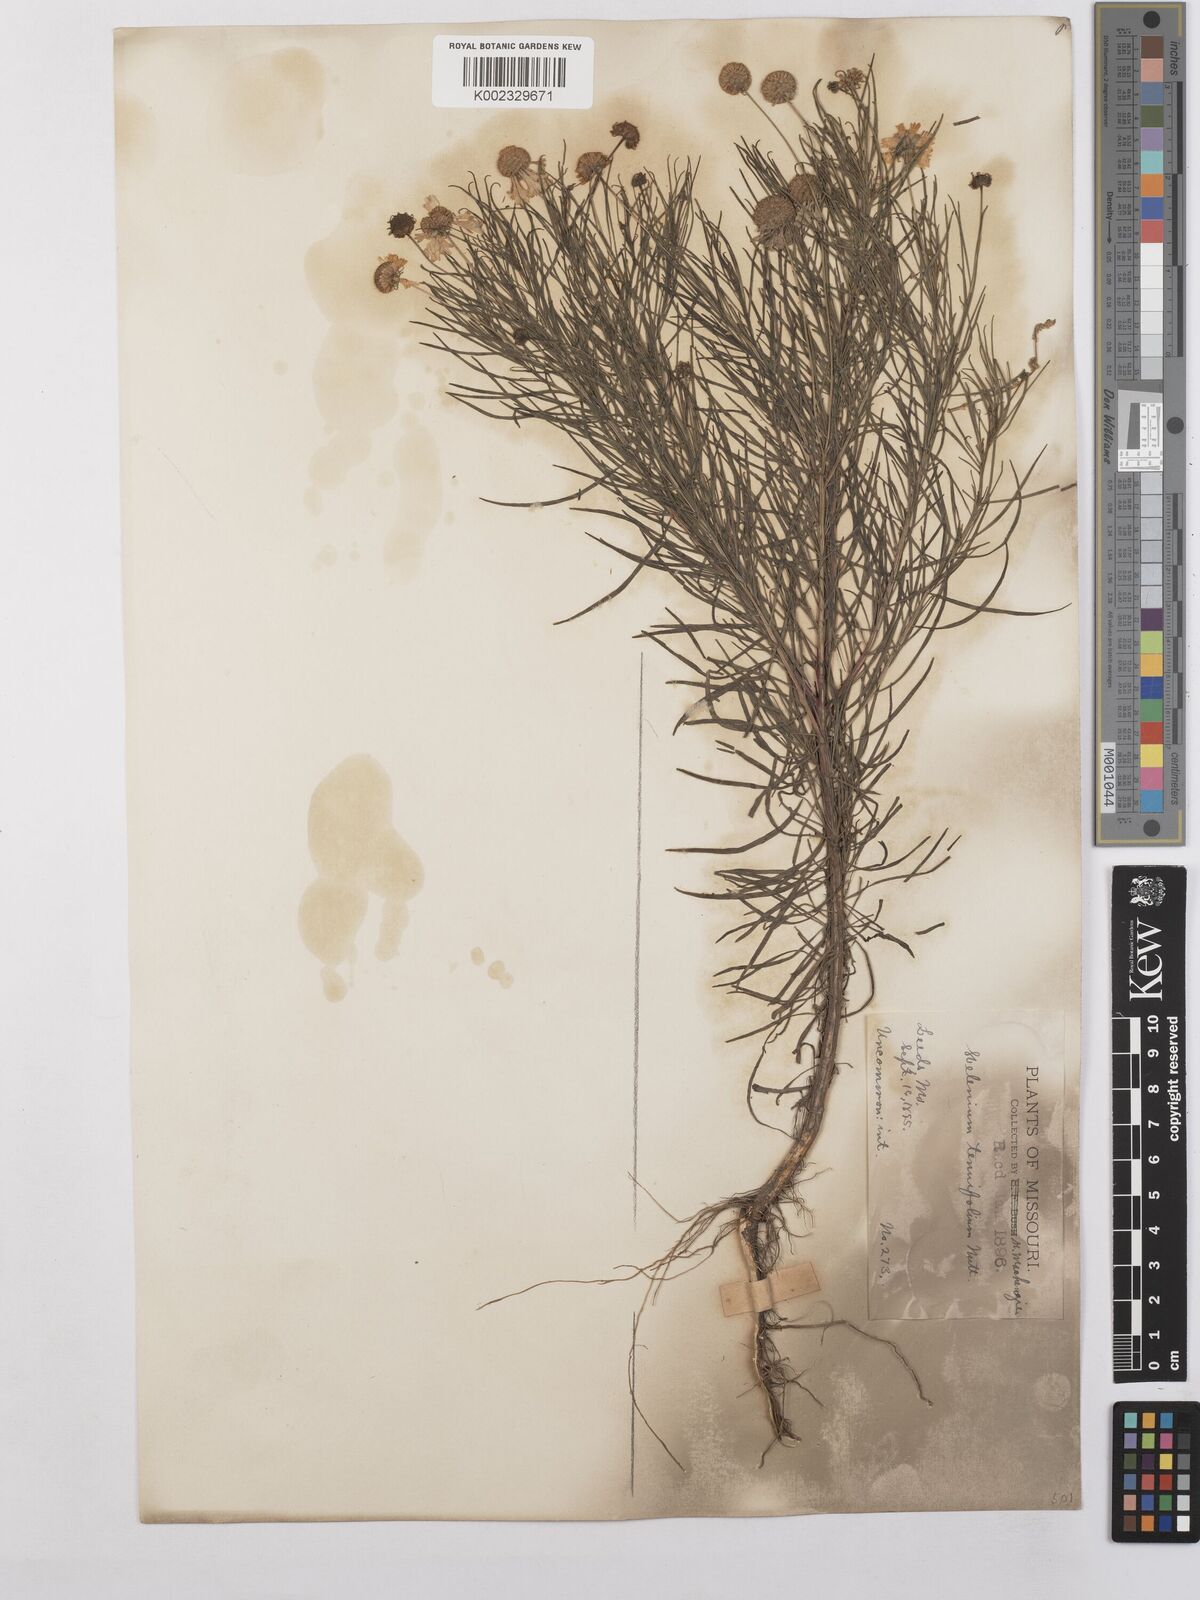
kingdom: Plantae
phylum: Tracheophyta
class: Magnoliopsida
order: Asterales
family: Asteraceae
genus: Helenium
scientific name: Helenium amarum
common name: Bitter sneezeweed
